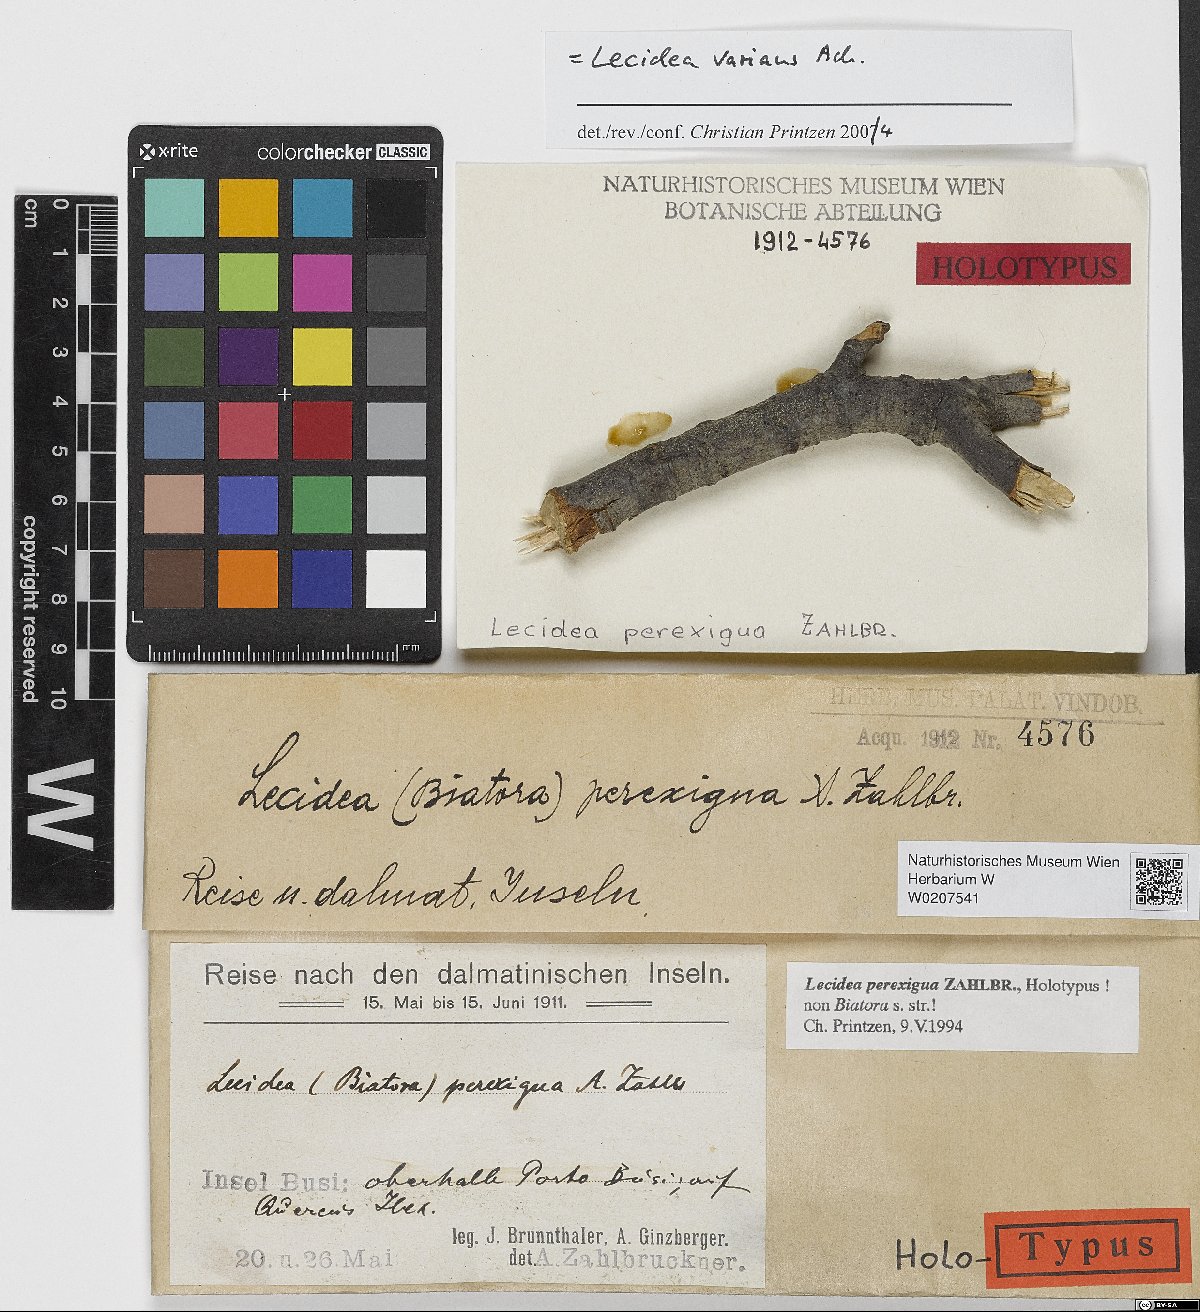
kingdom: Fungi
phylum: Ascomycota
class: Lecanoromycetes
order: Lecideales
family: Lecideaceae
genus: Lecidea
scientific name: Lecidea
